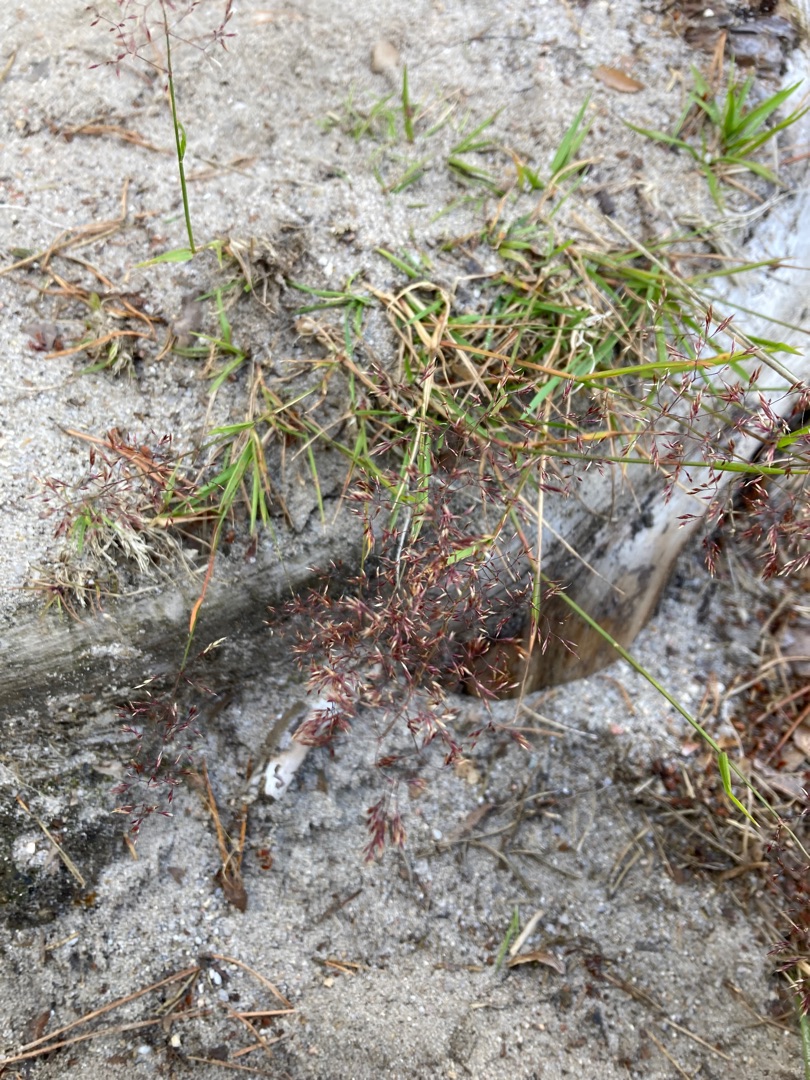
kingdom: Plantae
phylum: Tracheophyta
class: Liliopsida
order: Poales
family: Poaceae
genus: Agrostis
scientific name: Agrostis vinealis
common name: Sand-hvene
